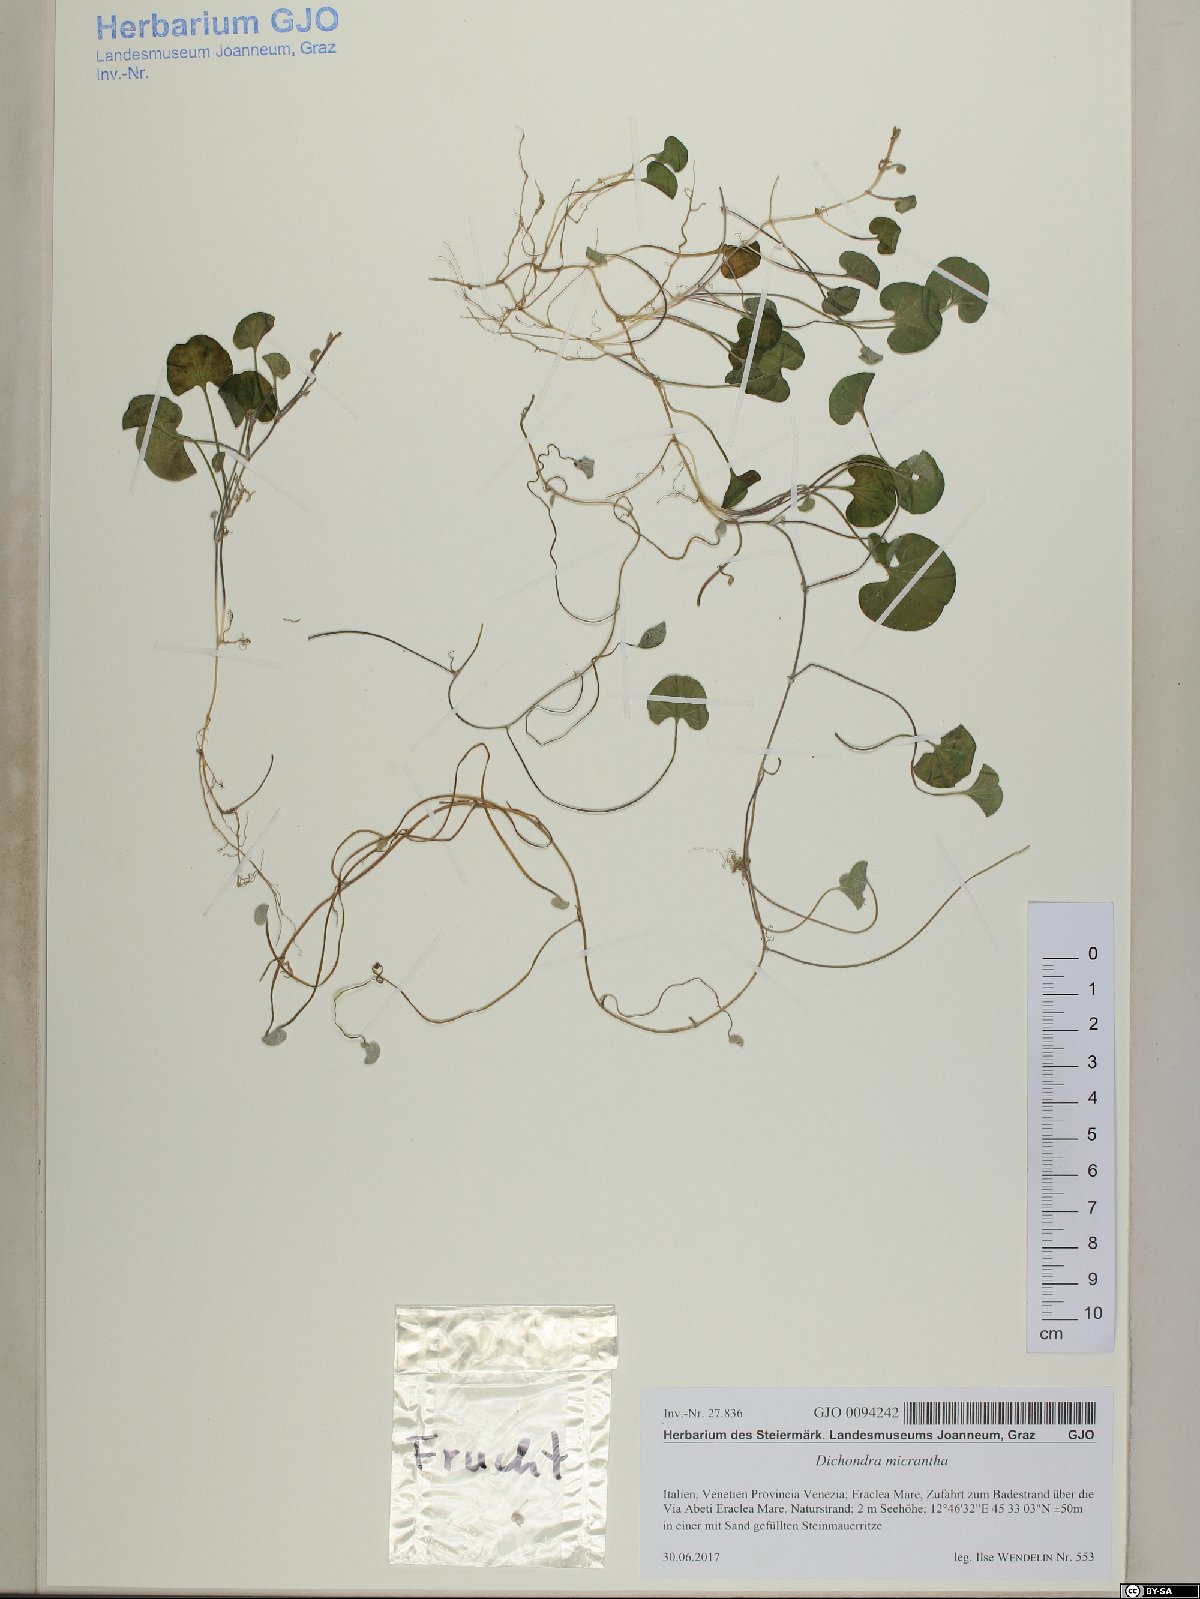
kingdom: Plantae
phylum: Tracheophyta
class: Magnoliopsida
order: Solanales
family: Convolvulaceae
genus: Dichondra
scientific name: Dichondra micrantha
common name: Kidneyweed
